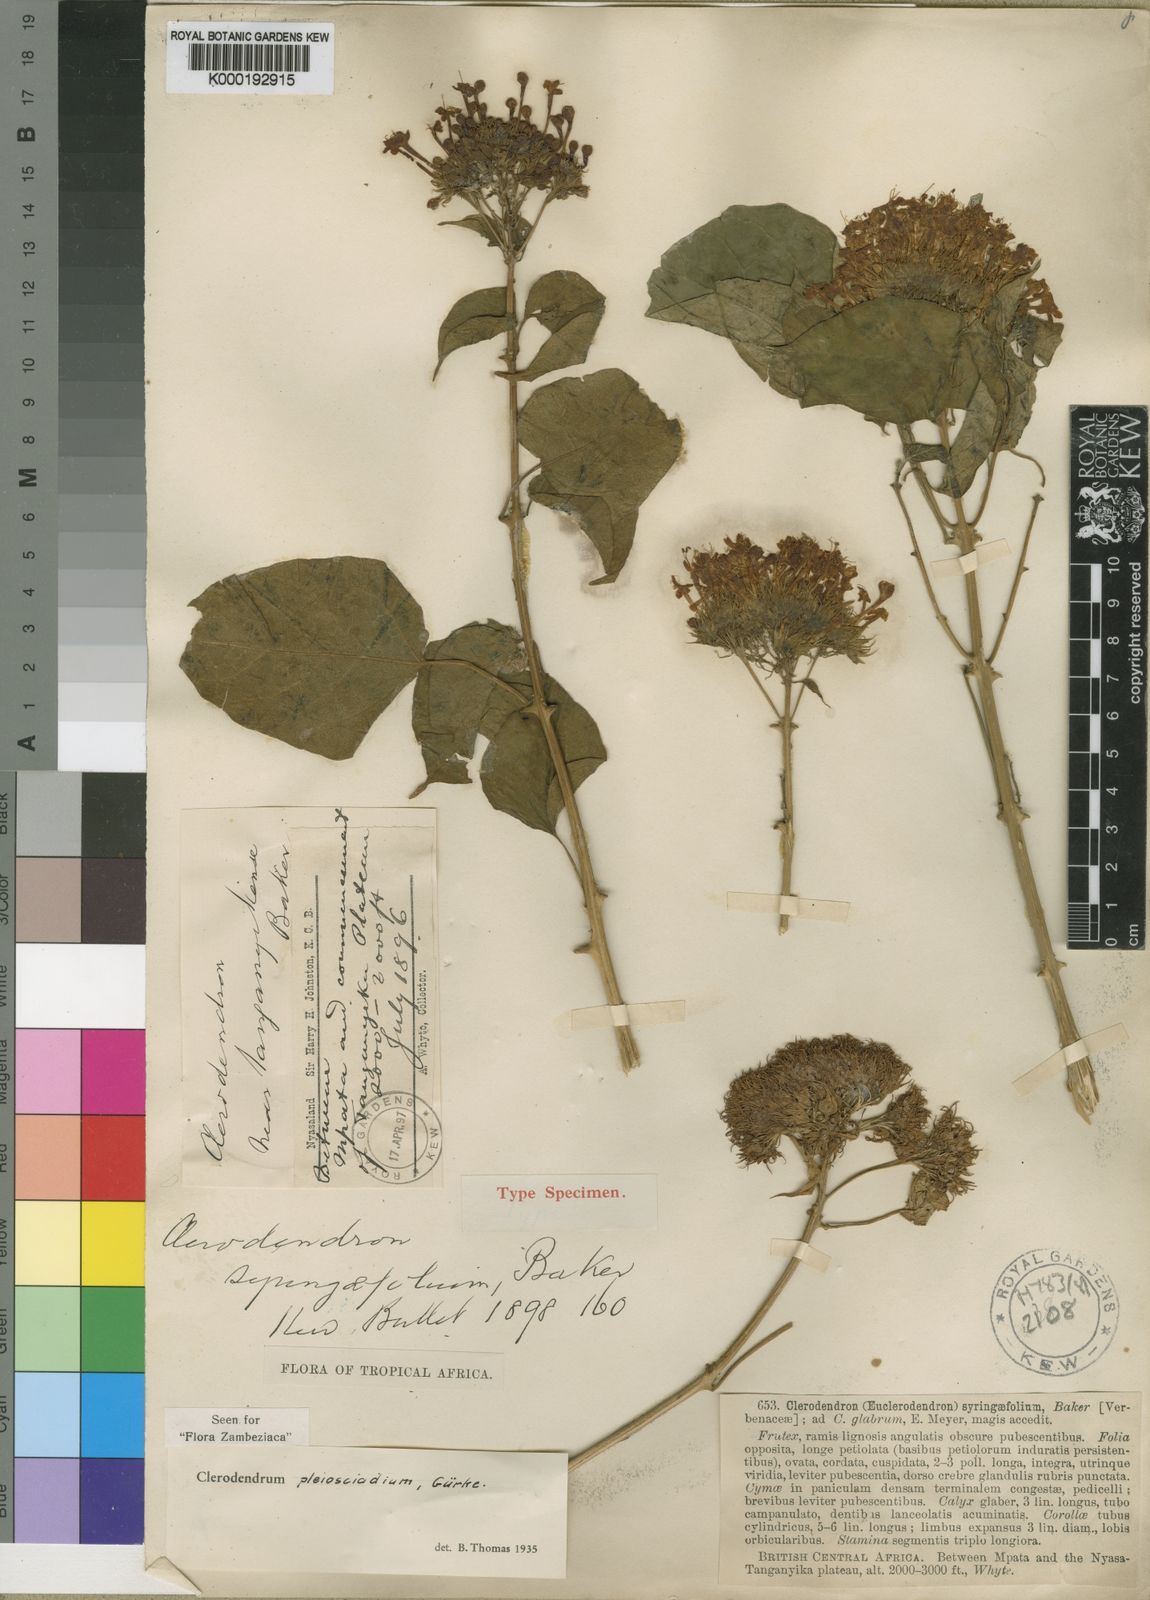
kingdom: Plantae
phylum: Tracheophyta
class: Magnoliopsida
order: Lamiales
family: Lamiaceae
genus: Clerodendrum
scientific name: Clerodendrum
